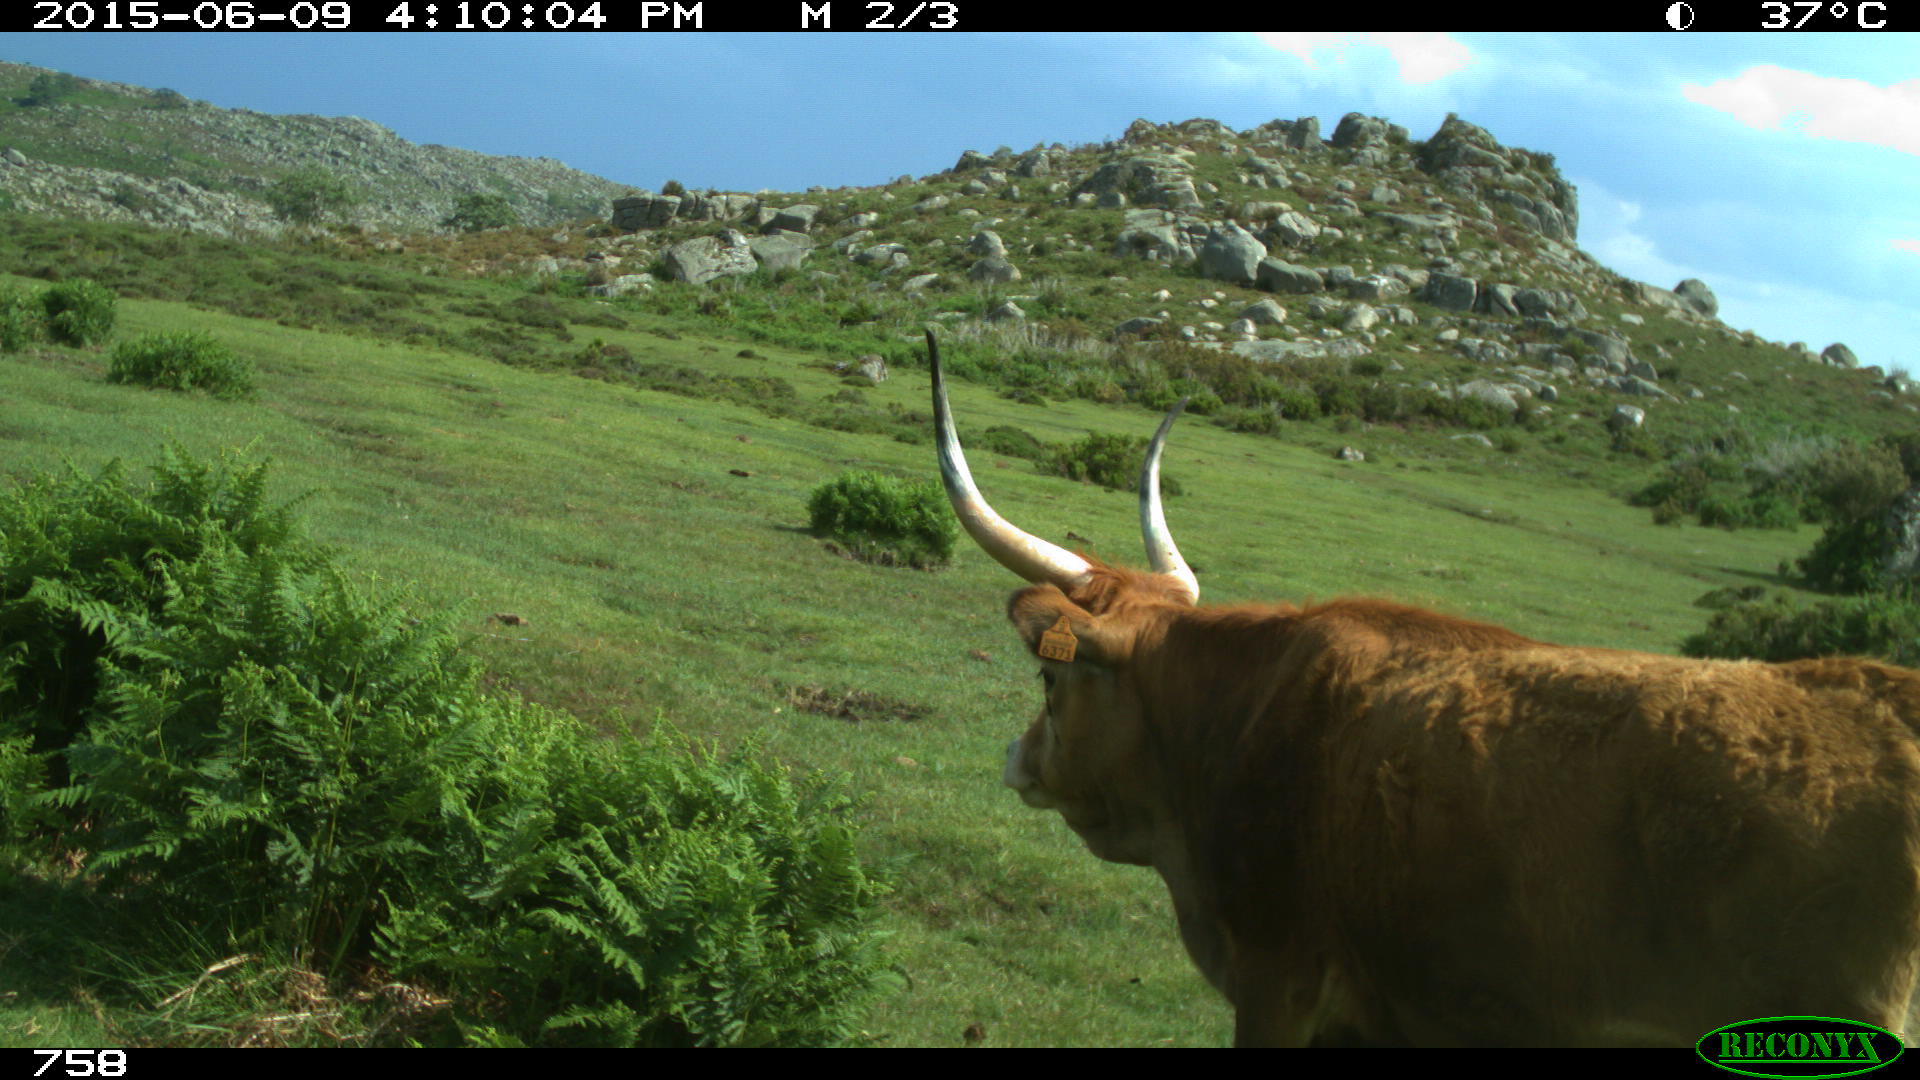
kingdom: Animalia
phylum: Chordata
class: Mammalia
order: Artiodactyla
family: Bovidae
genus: Bos
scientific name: Bos taurus
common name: Domesticated cattle
